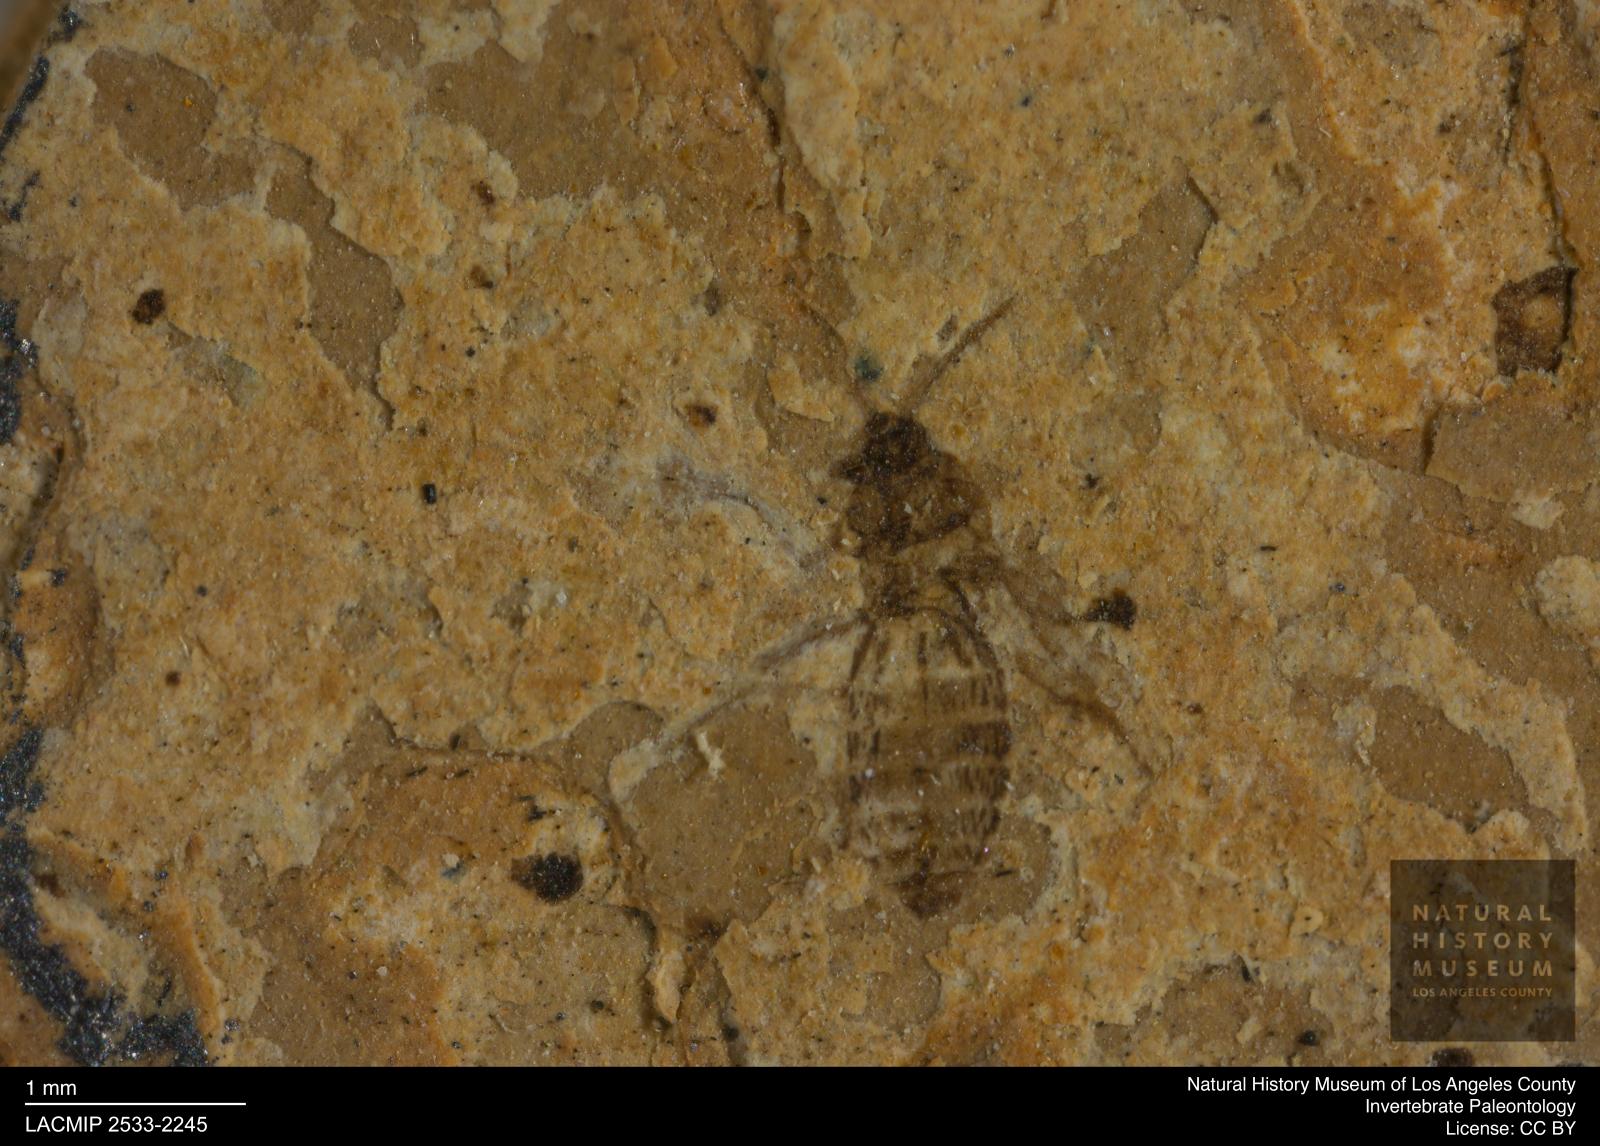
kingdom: Animalia
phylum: Arthropoda
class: Insecta
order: Diptera
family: Ceratopogonidae
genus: Atrichopogon
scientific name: Atrichopogon brunnescens
